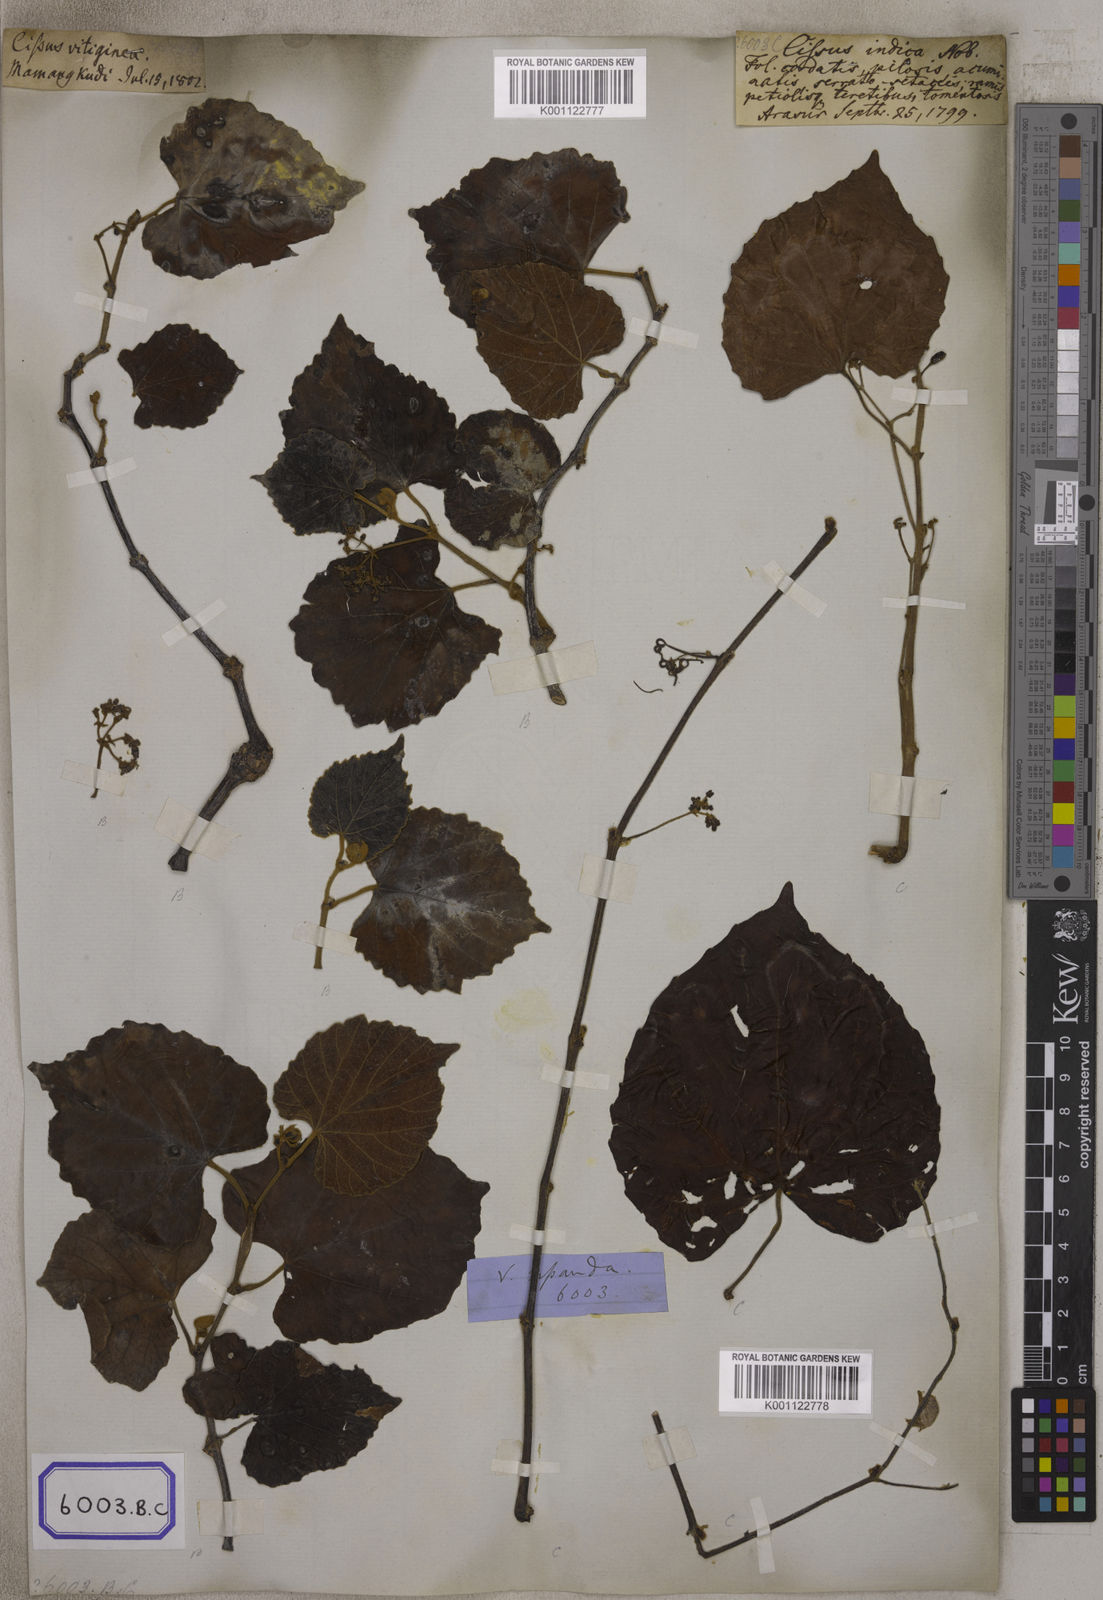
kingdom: Plantae
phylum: Tracheophyta
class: Magnoliopsida
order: Vitales
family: Vitaceae
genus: Cissus
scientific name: Cissus repanda
